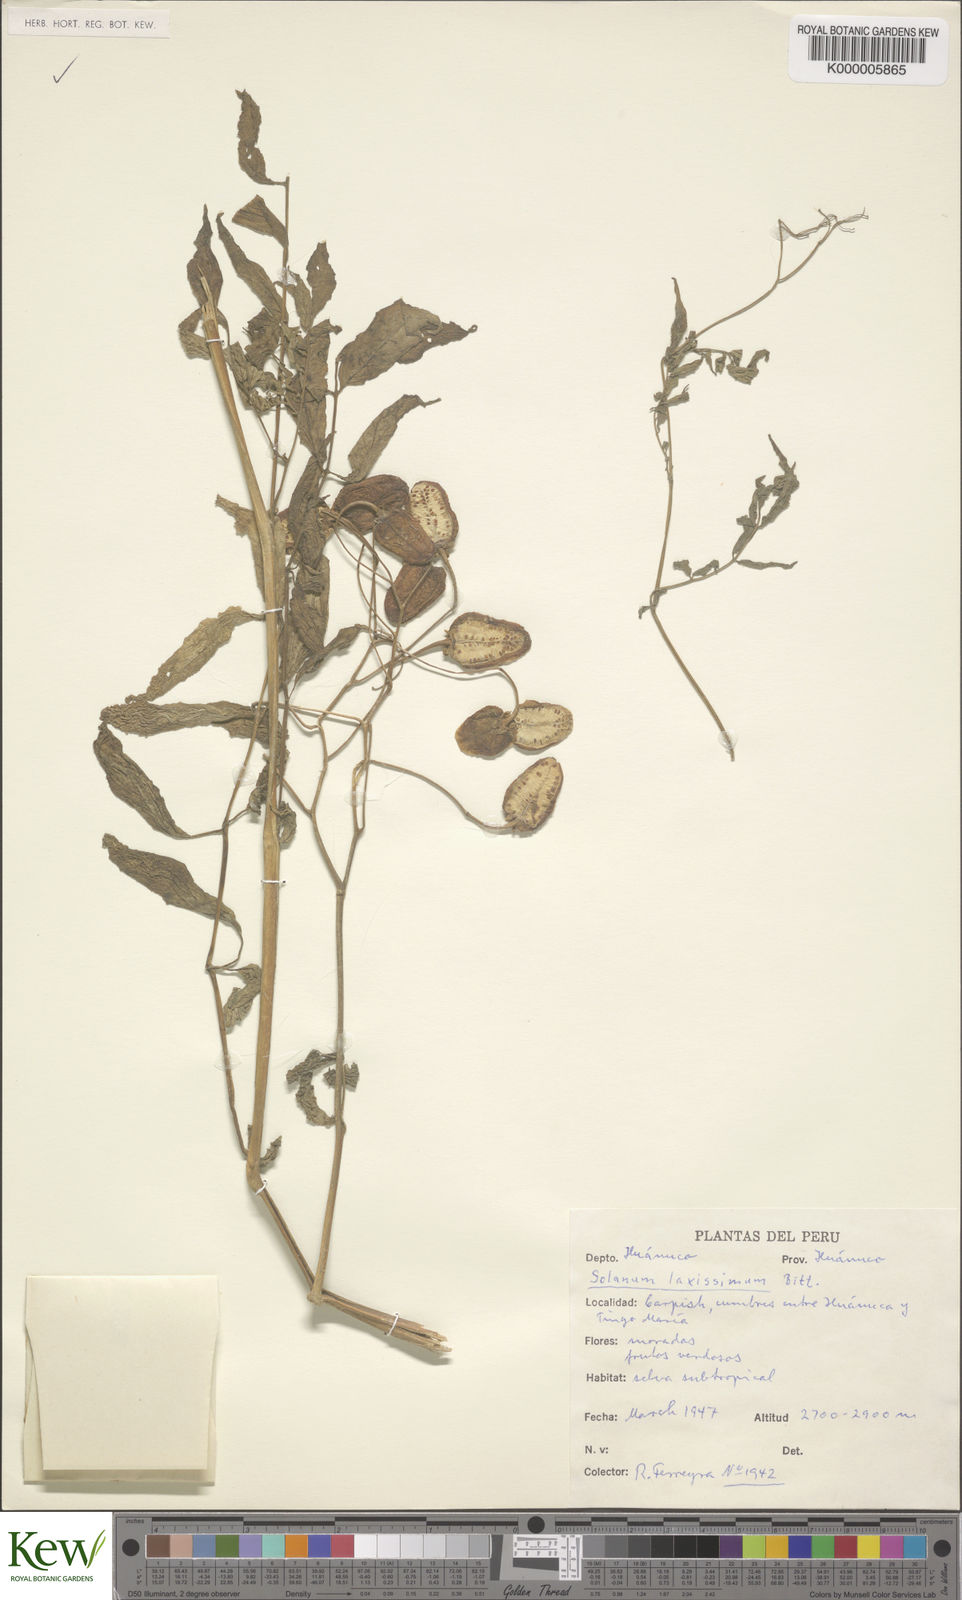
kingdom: Plantae
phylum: Tracheophyta
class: Magnoliopsida
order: Solanales
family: Solanaceae
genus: Solanum
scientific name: Solanum laxissimum
